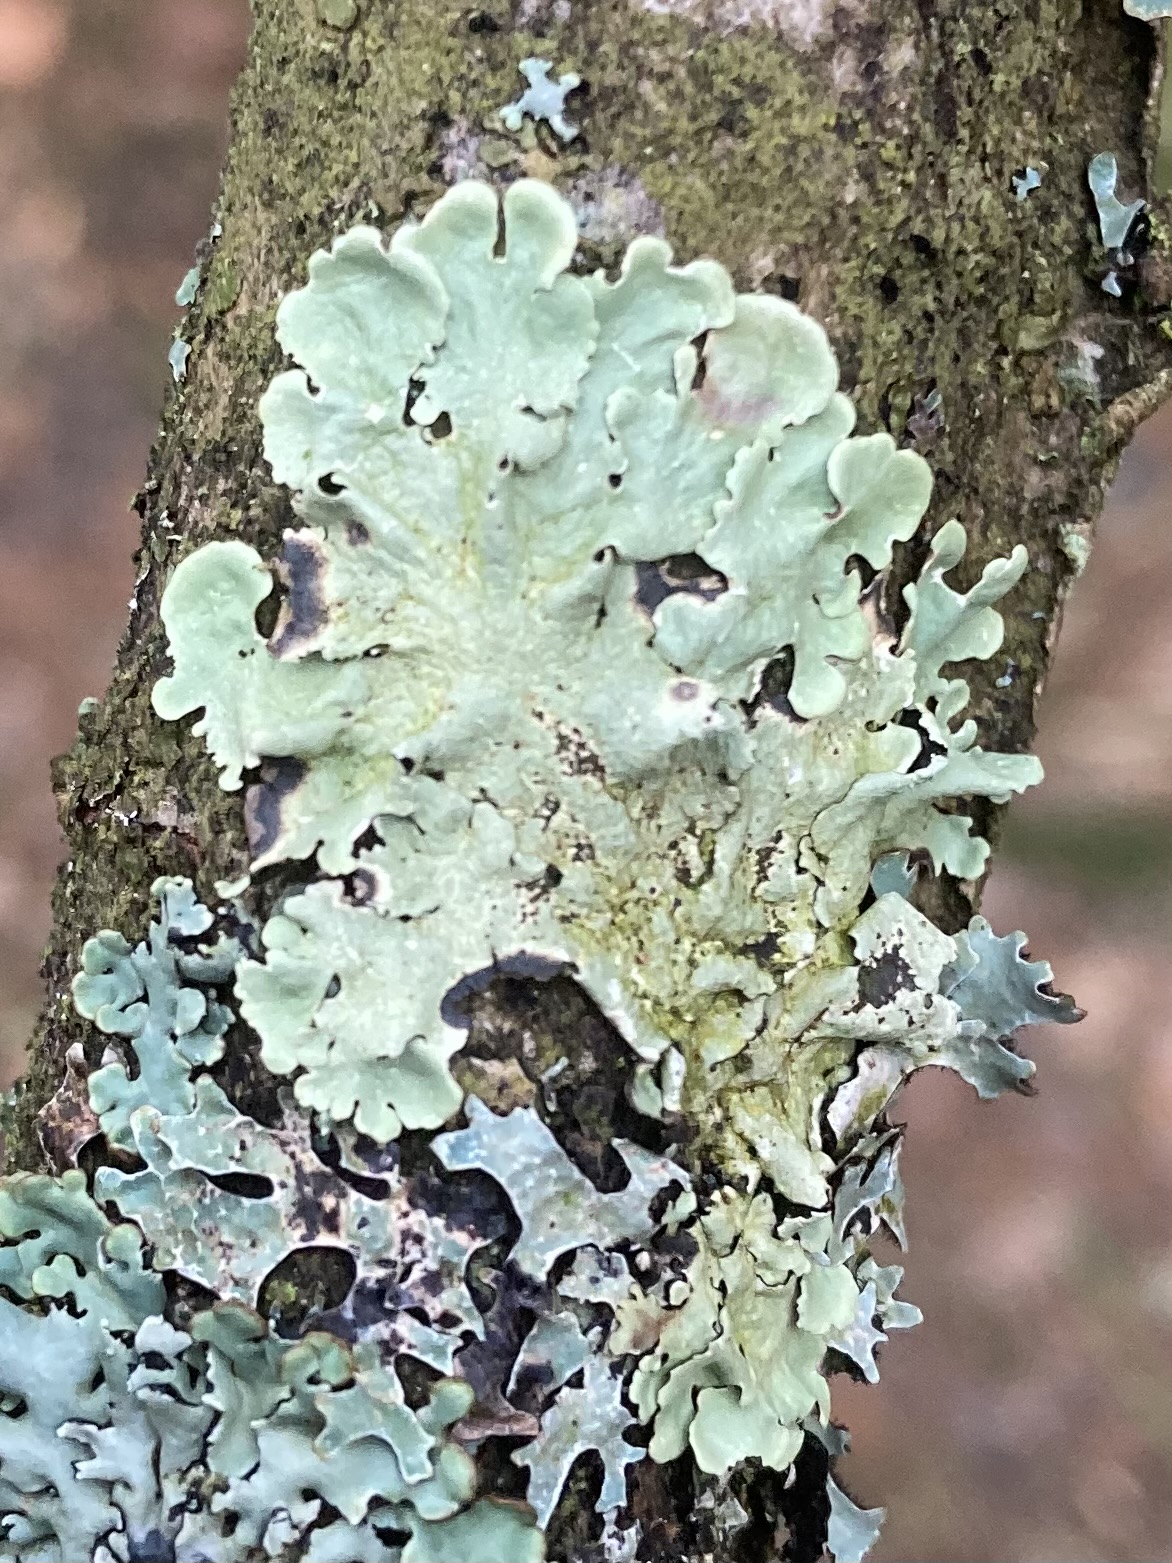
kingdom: Fungi
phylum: Ascomycota
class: Lecanoromycetes
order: Lecanorales
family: Parmeliaceae
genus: Flavoparmelia
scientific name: Flavoparmelia caperata
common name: gulgrøn skållav
